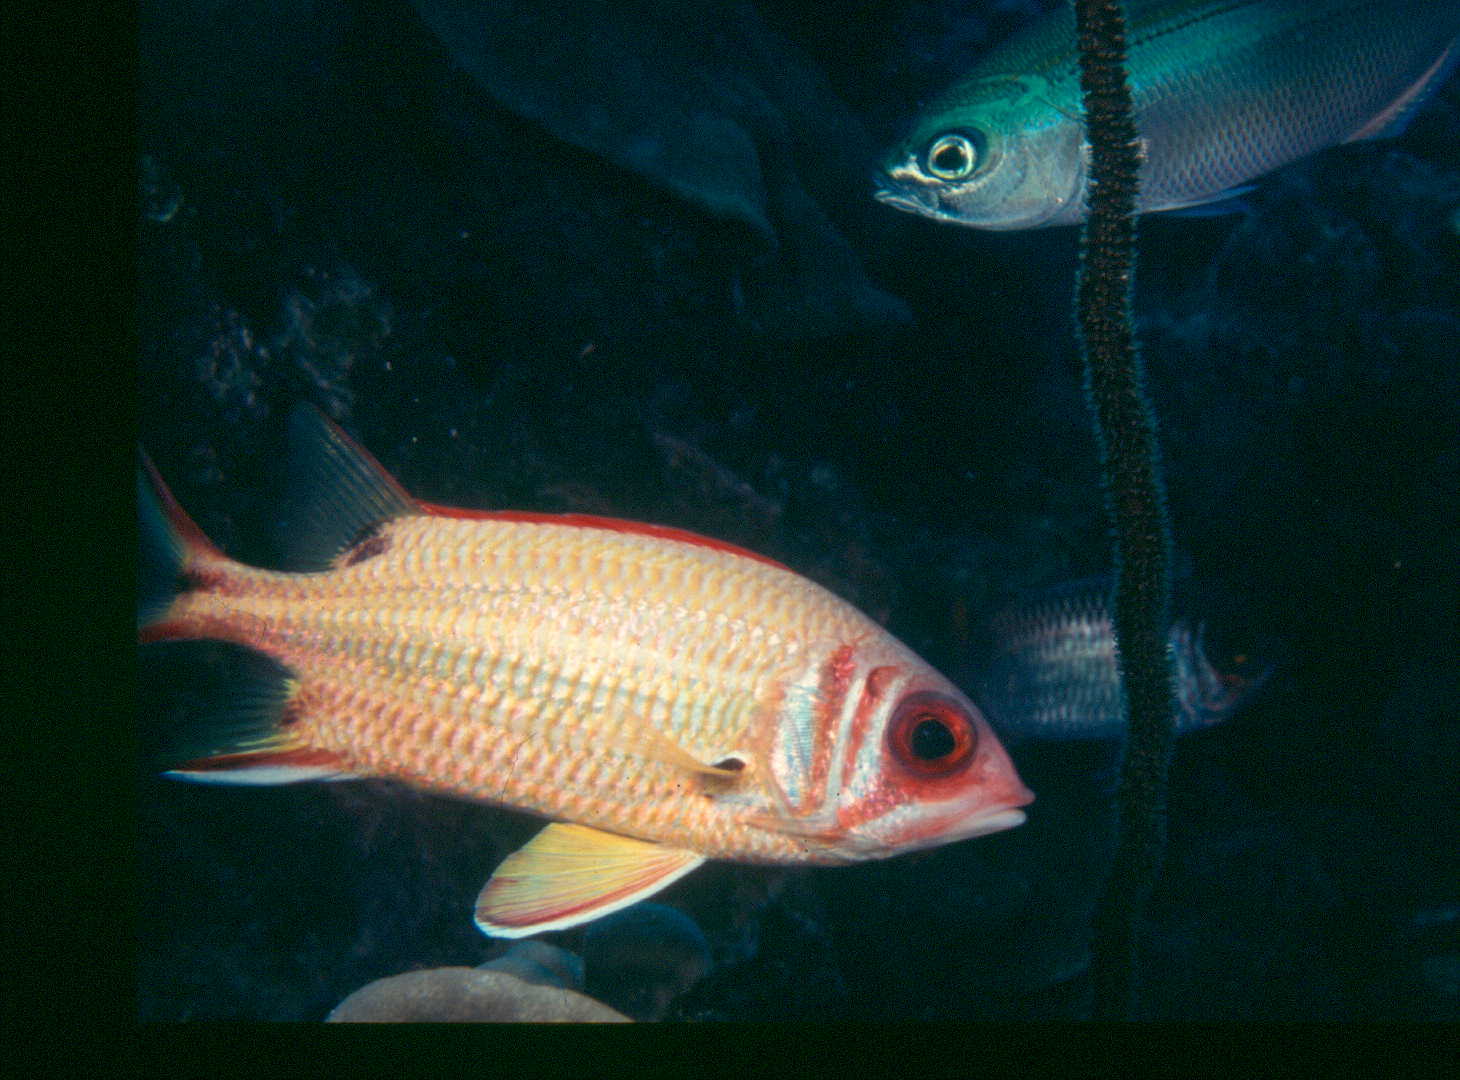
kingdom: Animalia
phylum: Chordata
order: Beryciformes
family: Holocentridae
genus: Sargocentron
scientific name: Sargocentron melanospilos
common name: Blackblotch squirrelfish
